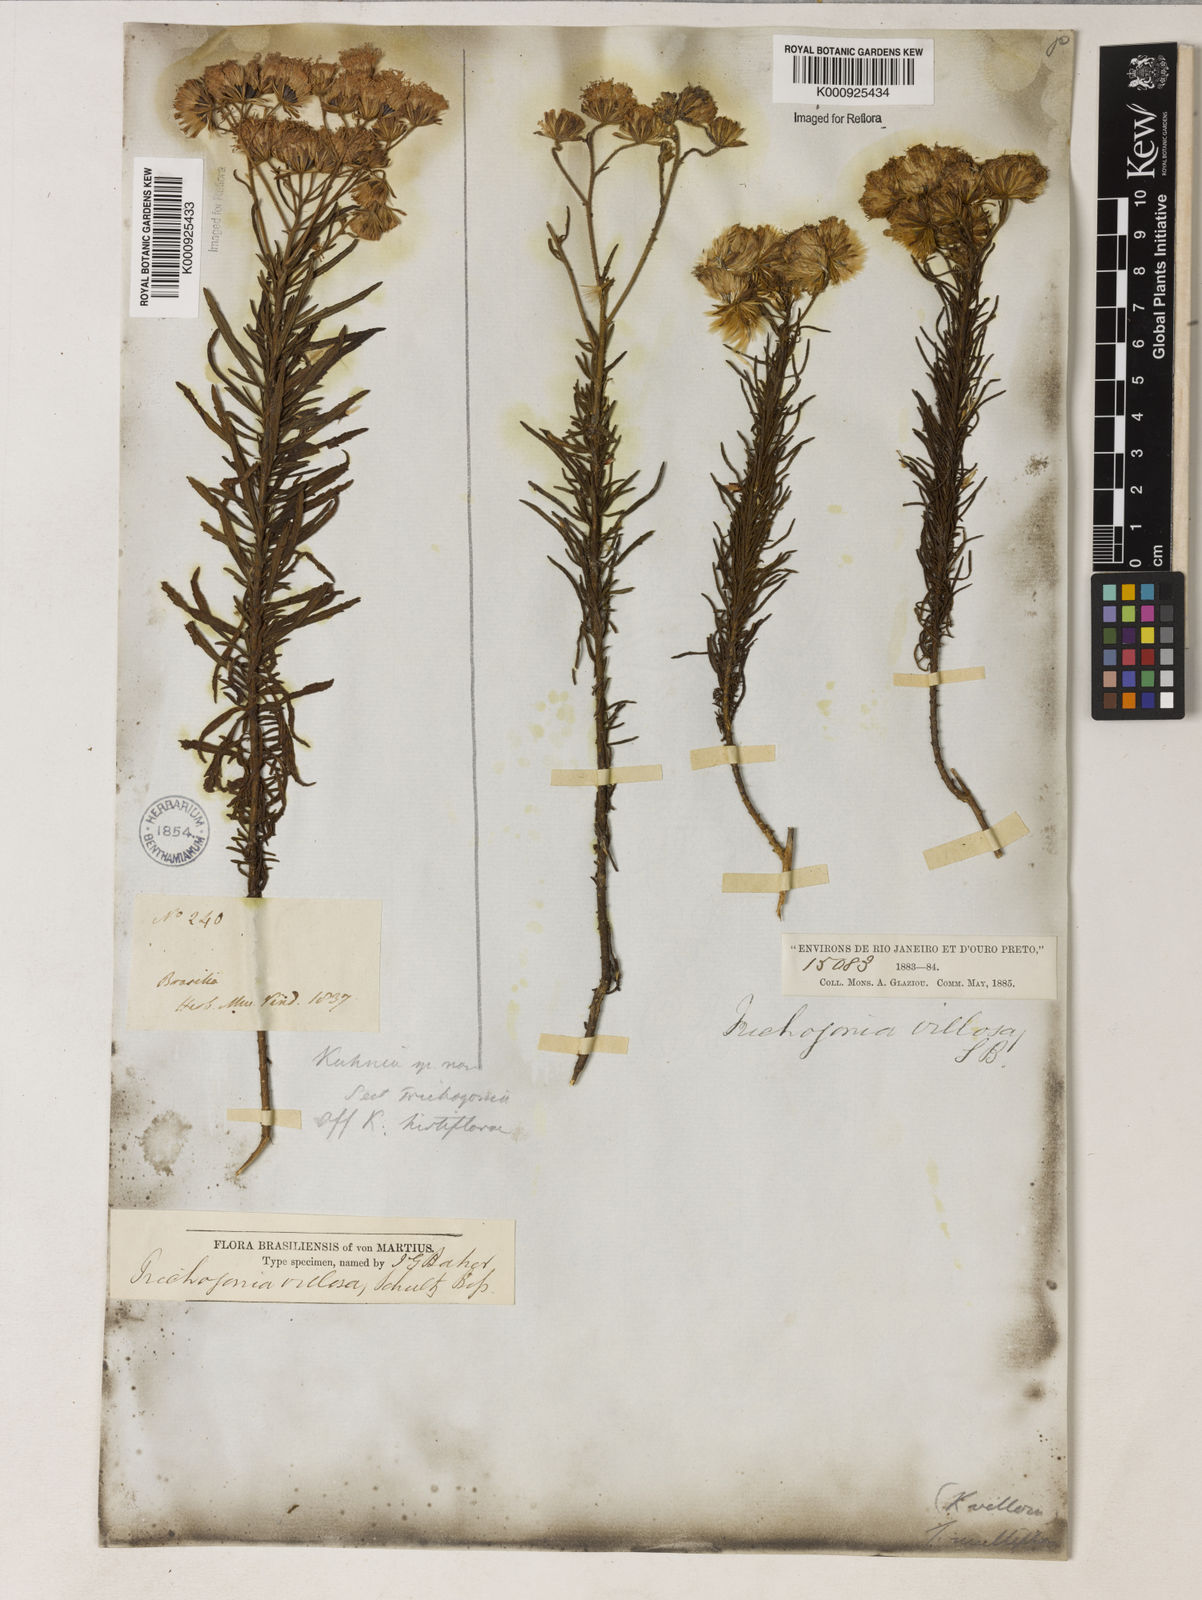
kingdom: Plantae
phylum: Tracheophyta
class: Magnoliopsida
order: Asterales
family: Asteraceae
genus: Trichogonia
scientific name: Trichogonia villosa
